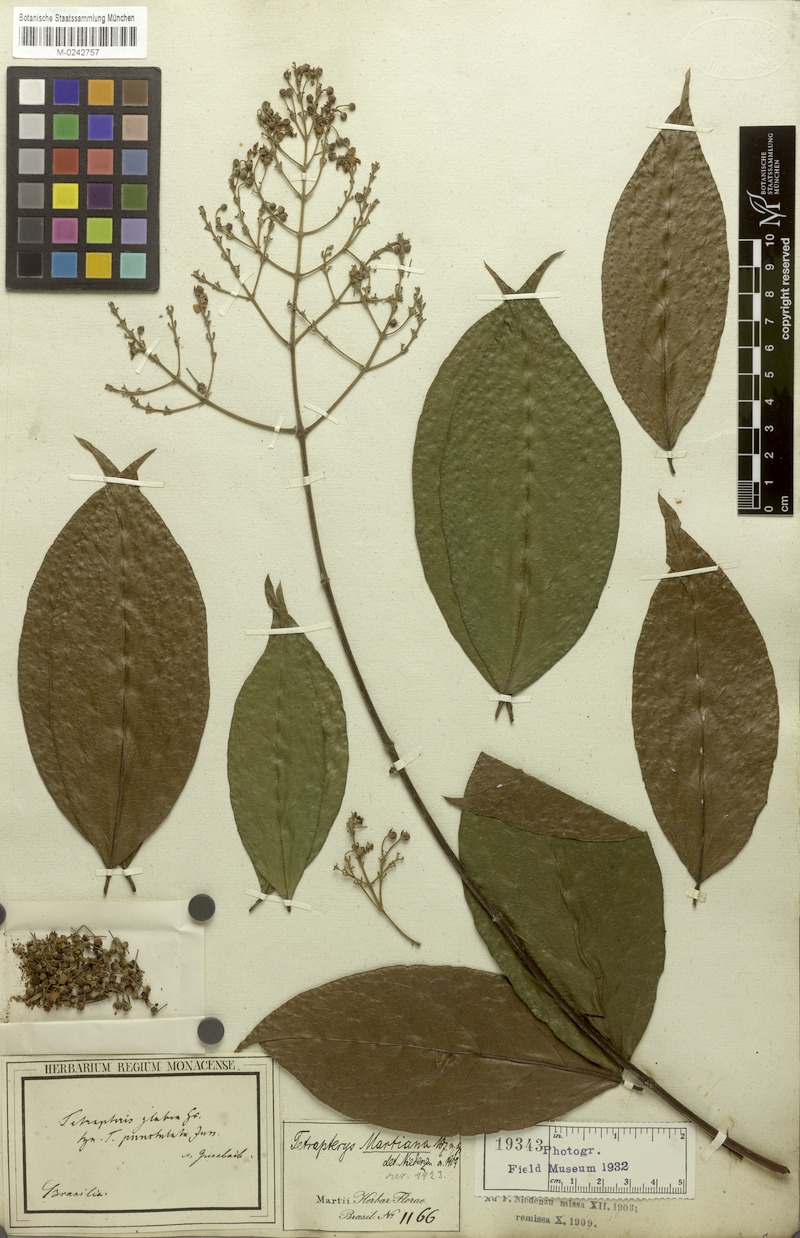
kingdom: Plantae
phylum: Tracheophyta
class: Magnoliopsida
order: Malpighiales
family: Malpighiaceae
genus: Niedenzuella
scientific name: Niedenzuella leucosepala
